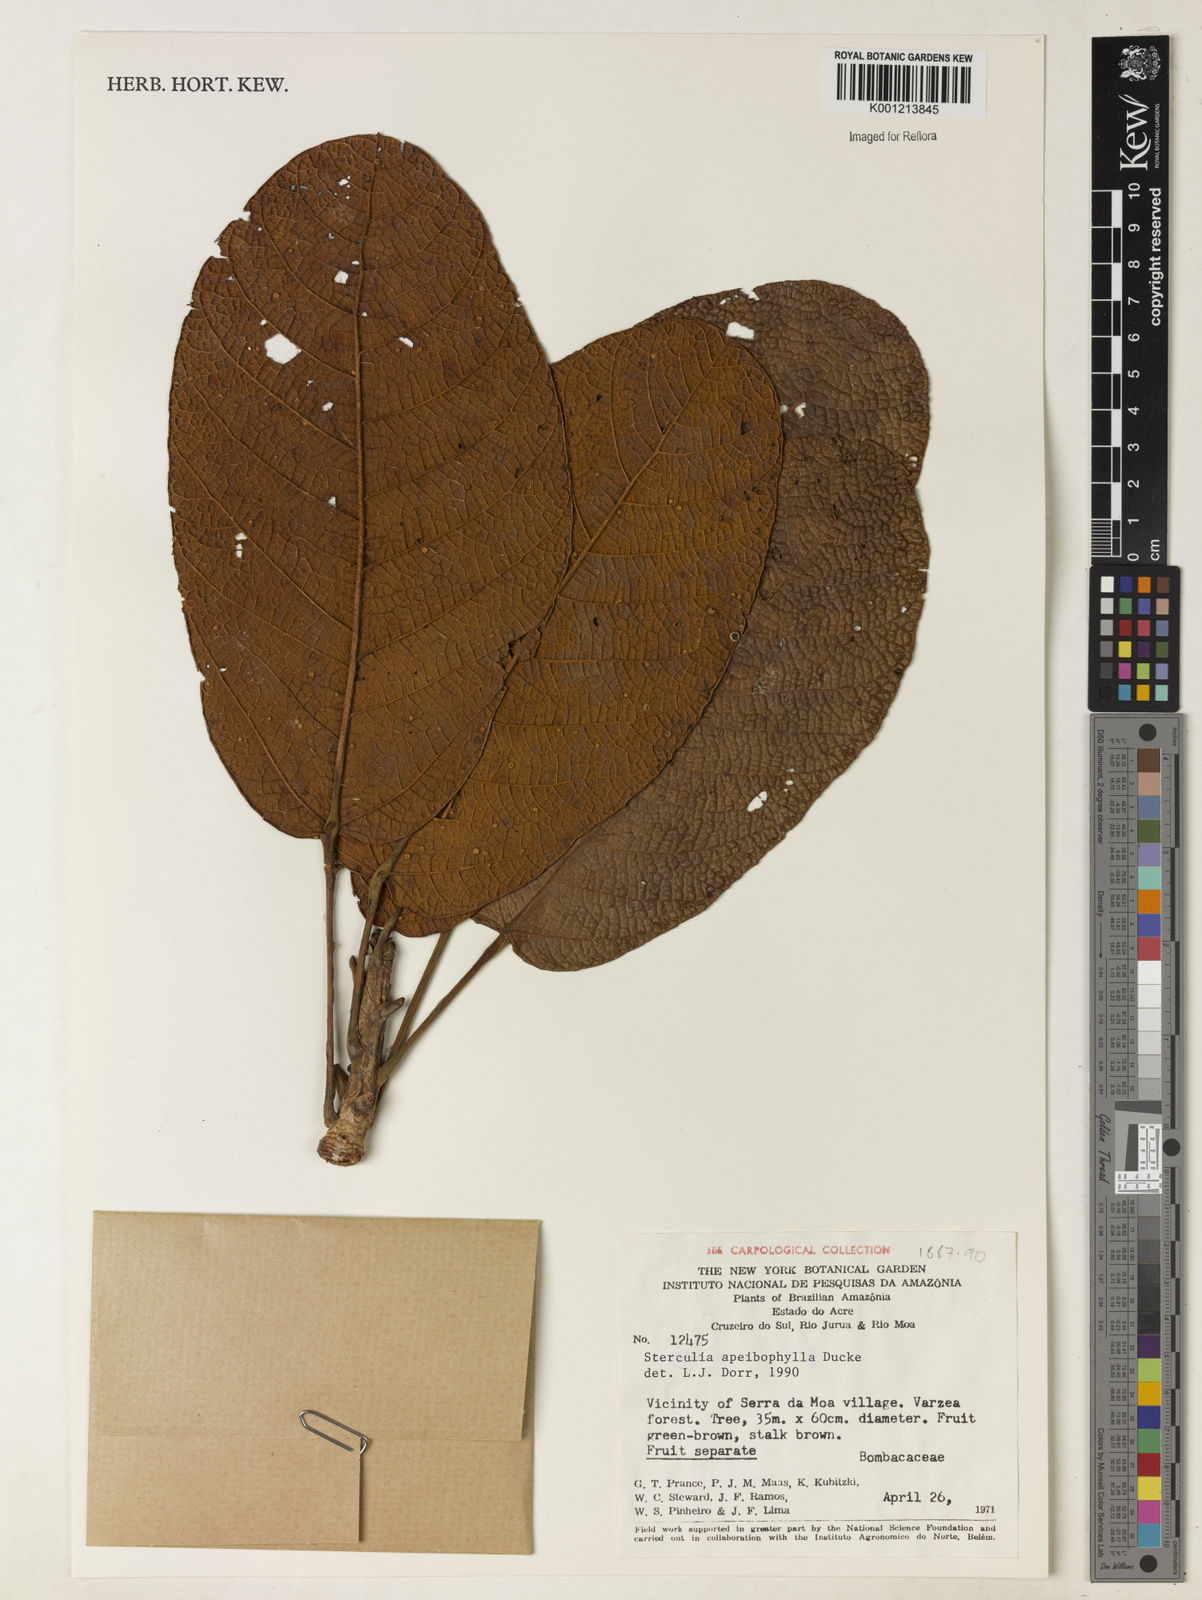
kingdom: Plantae
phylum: Tracheophyta
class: Magnoliopsida
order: Malvales
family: Malvaceae
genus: Sterculia
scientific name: Sterculia apeibophylla
